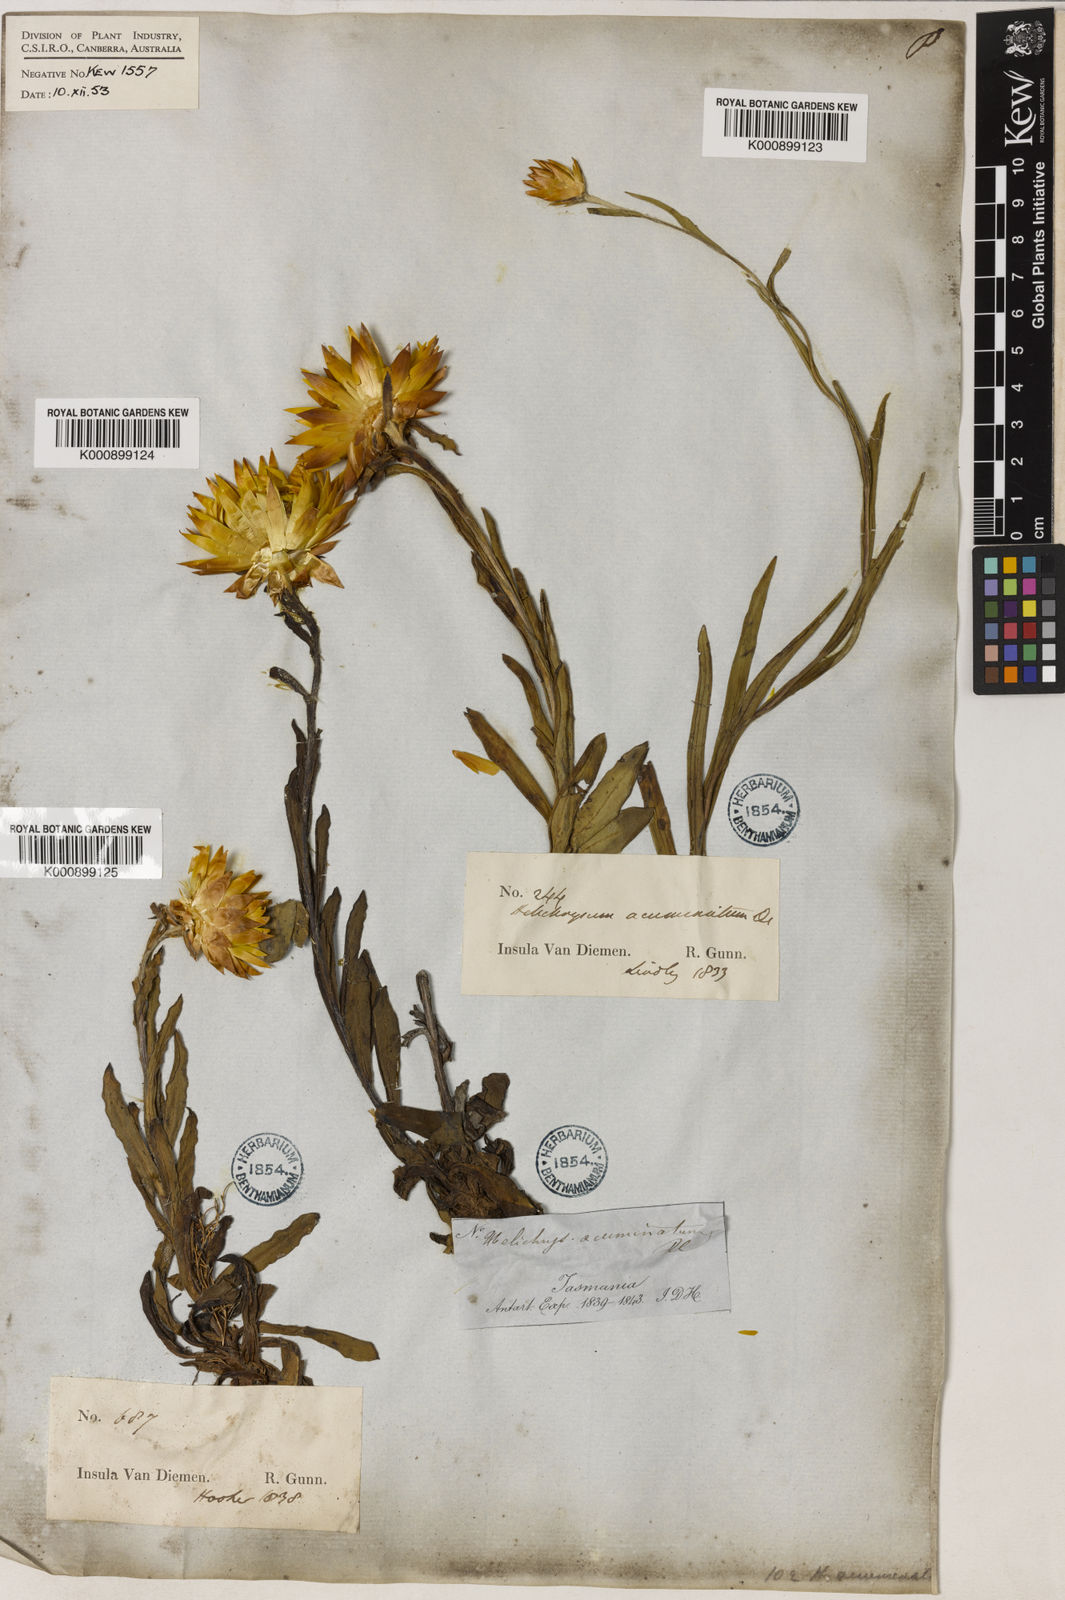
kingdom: Plantae
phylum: Tracheophyta
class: Magnoliopsida
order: Asterales
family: Asteraceae
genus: Xerochrysum
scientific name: Xerochrysum bracteatum
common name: Bracted strawflower
